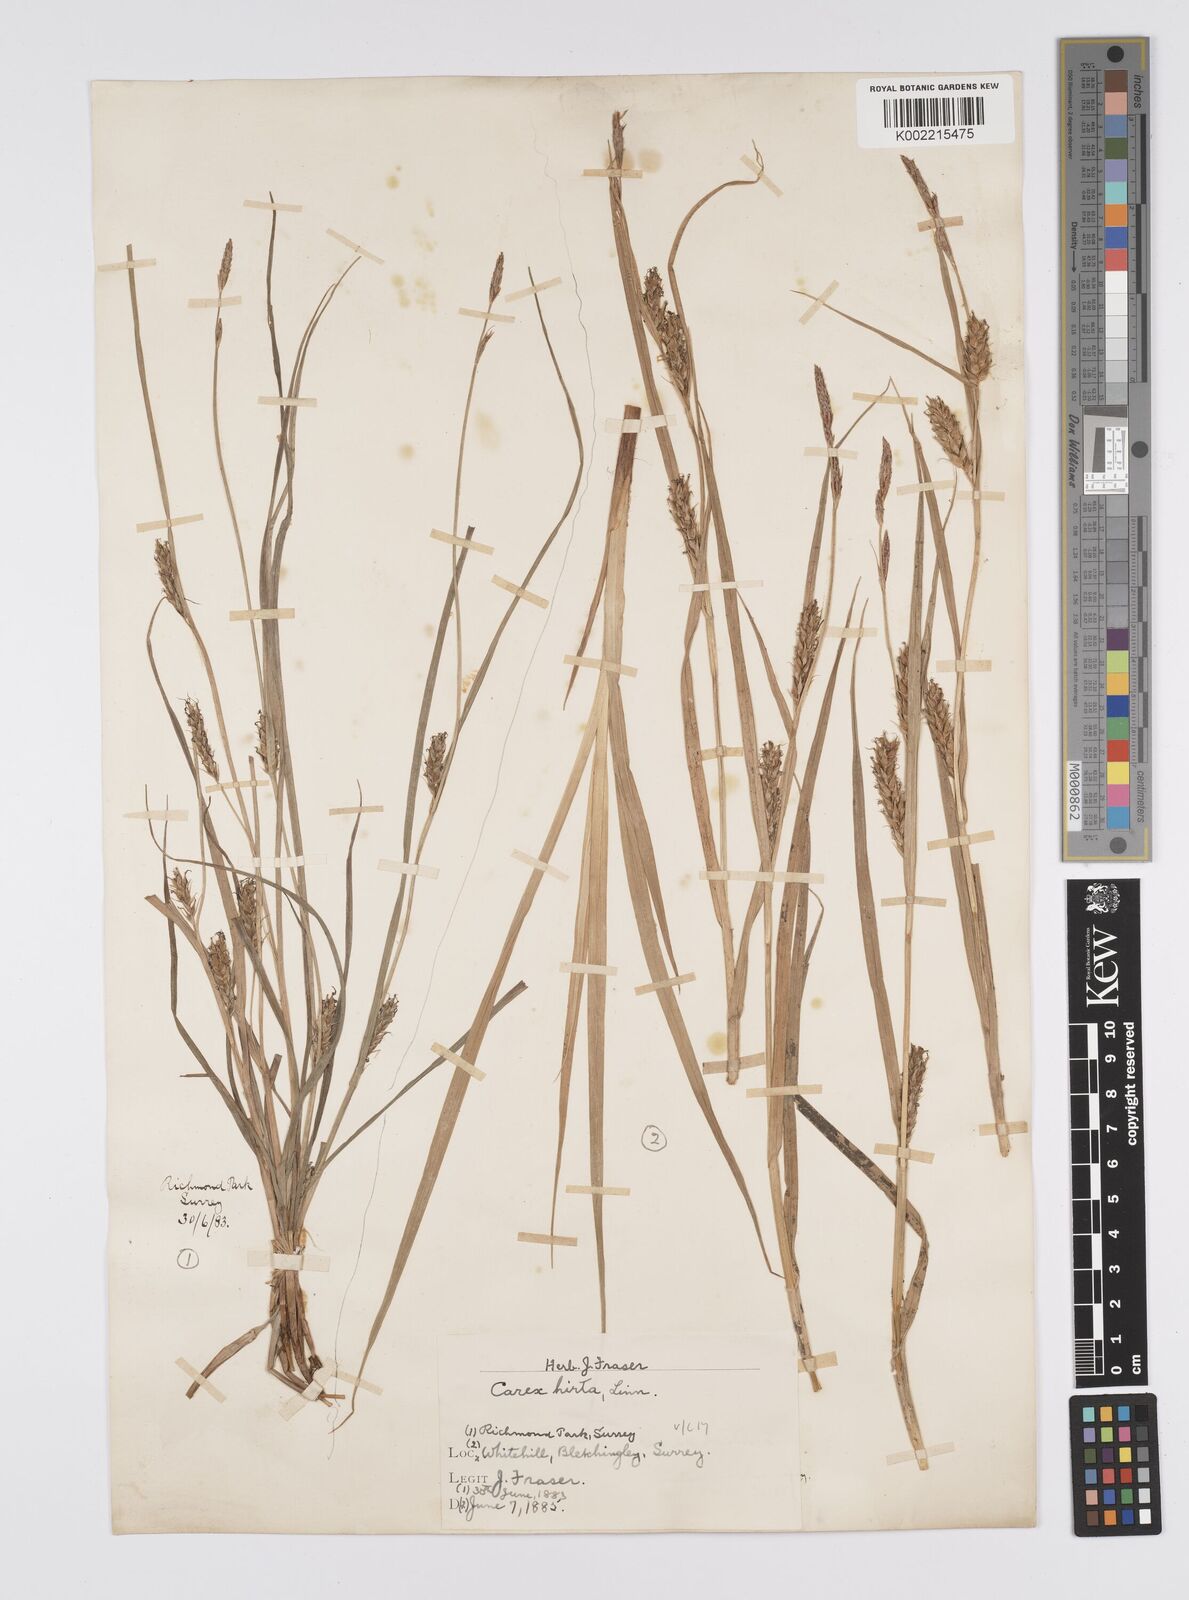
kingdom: Plantae
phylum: Tracheophyta
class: Liliopsida
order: Poales
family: Cyperaceae
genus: Carex
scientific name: Carex hirta
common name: Hairy sedge
